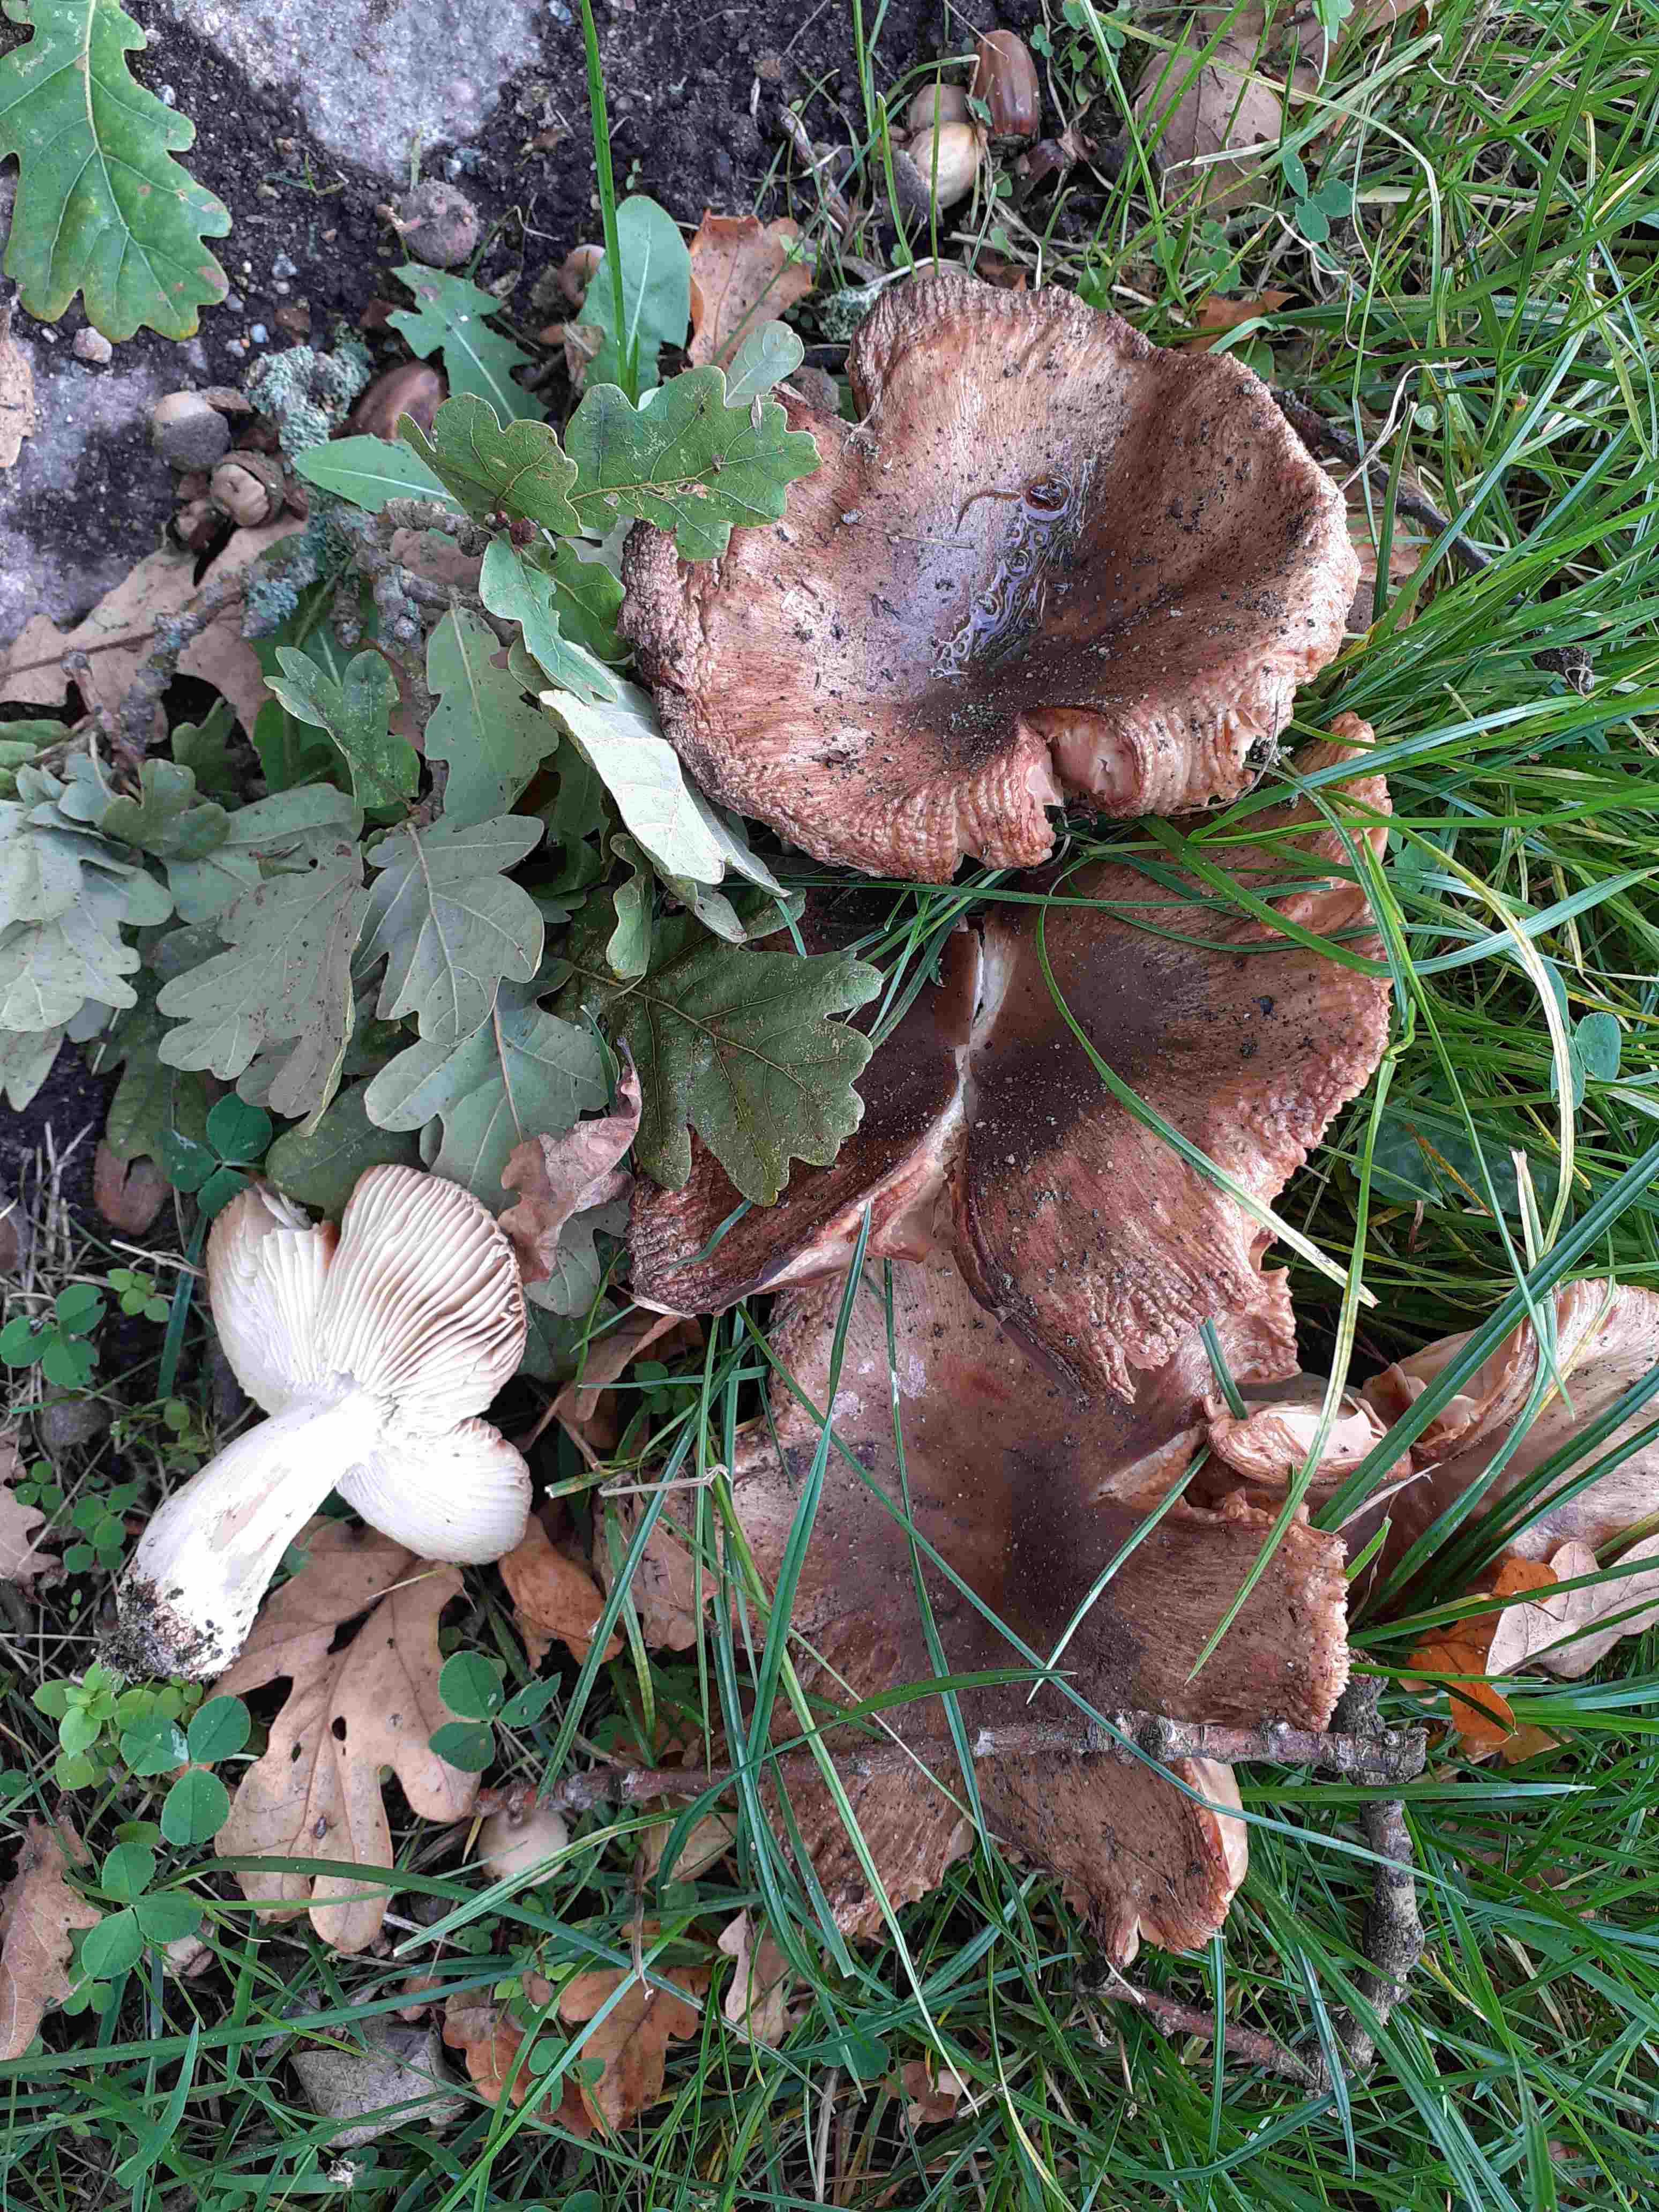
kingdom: Fungi
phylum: Basidiomycota
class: Agaricomycetes
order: Russulales
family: Russulaceae
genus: Russula
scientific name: Russula recondita
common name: mild kam-skørhat
